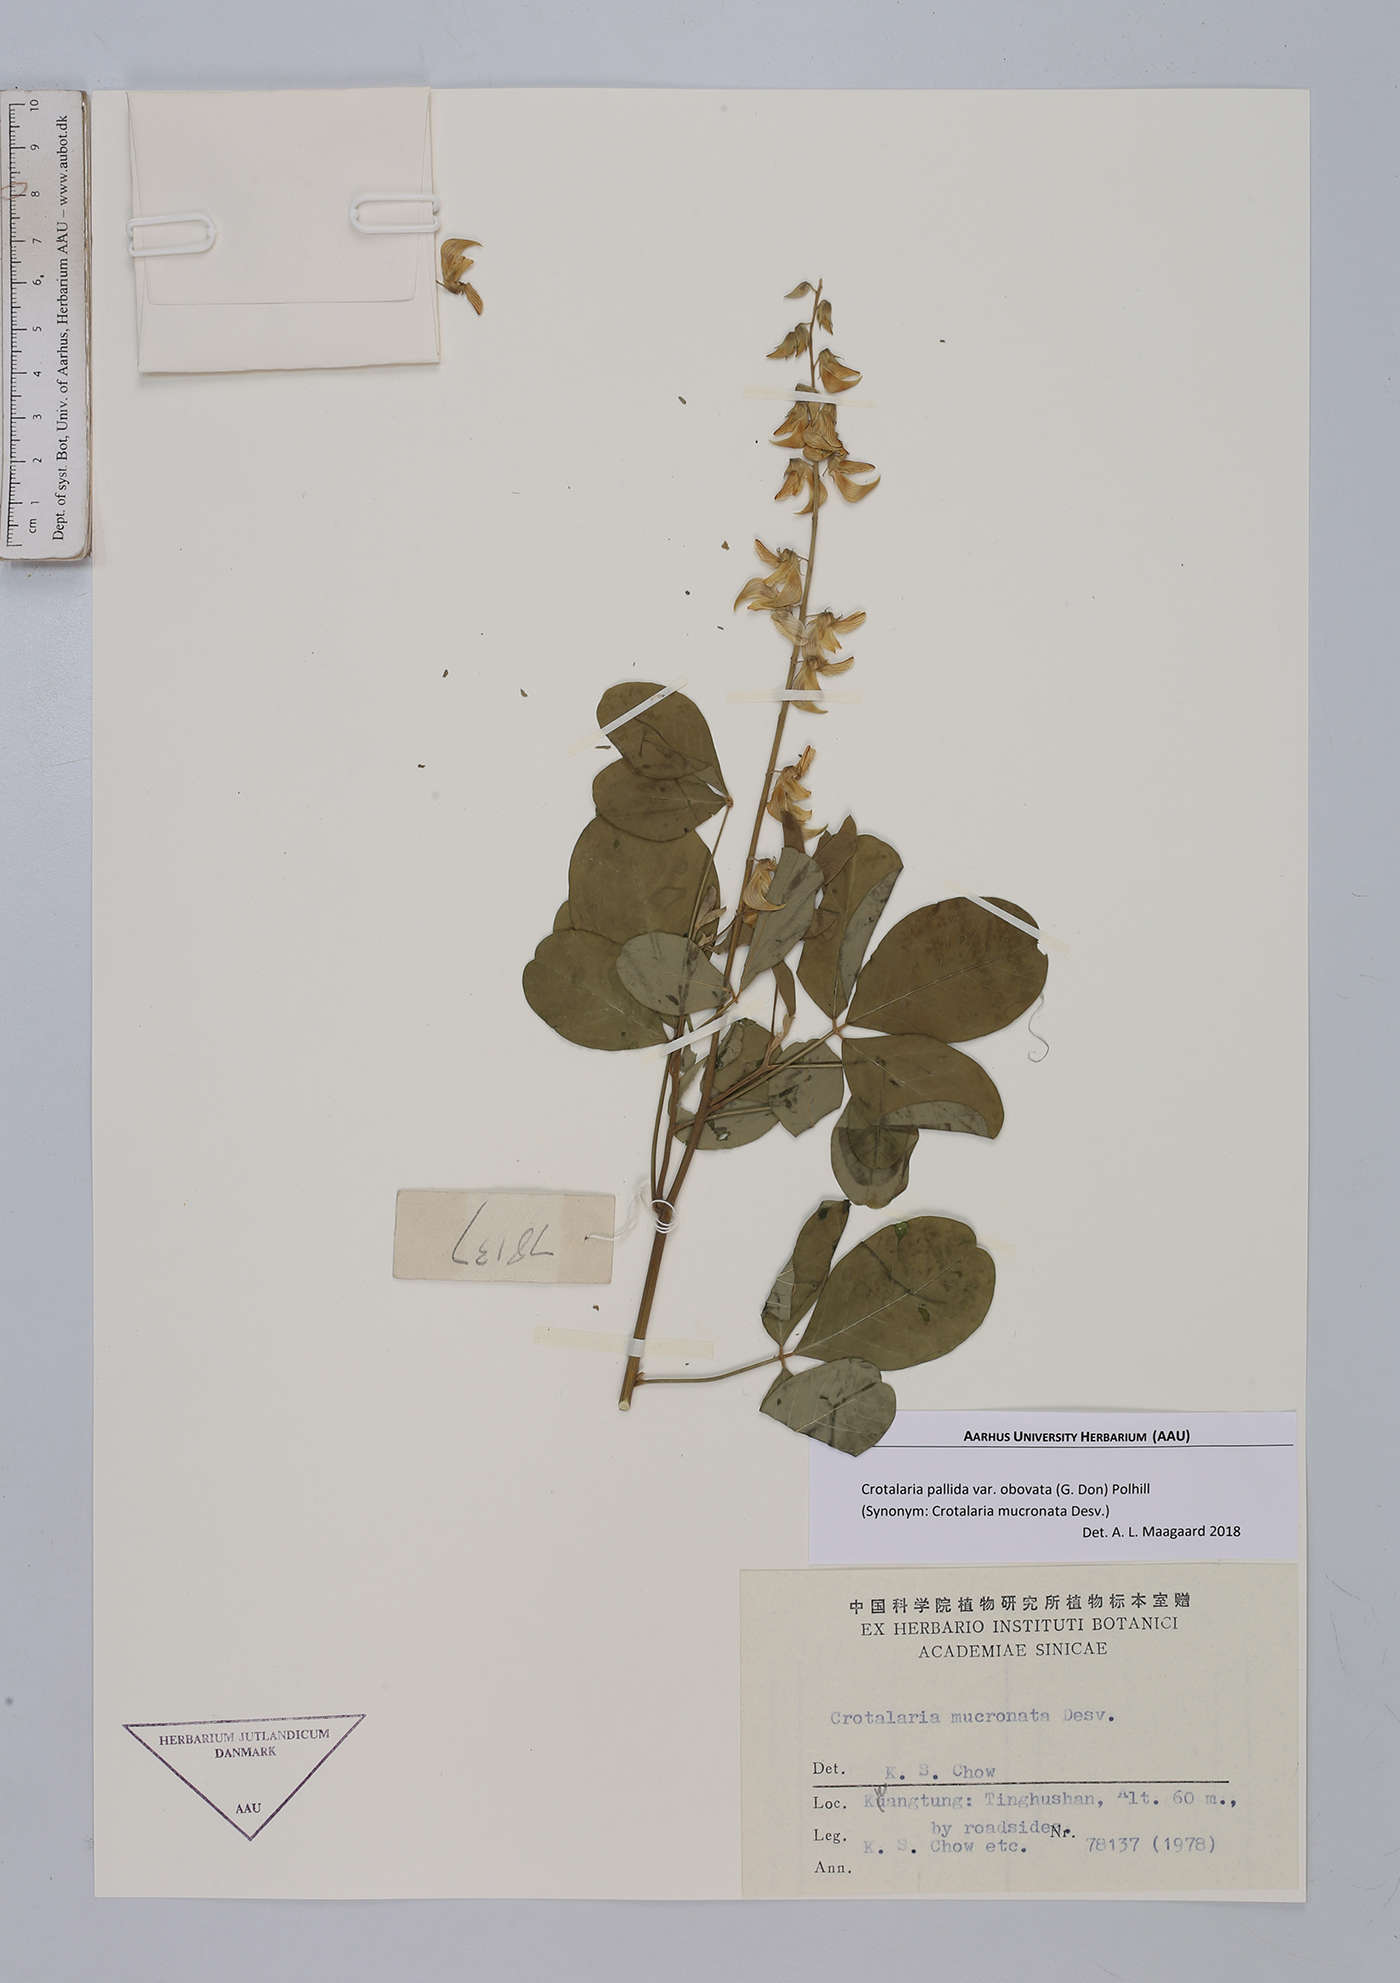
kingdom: Plantae
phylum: Tracheophyta
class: Magnoliopsida
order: Fabales
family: Fabaceae
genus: Crotalaria
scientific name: Crotalaria pallida
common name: Smooth rattlebox
